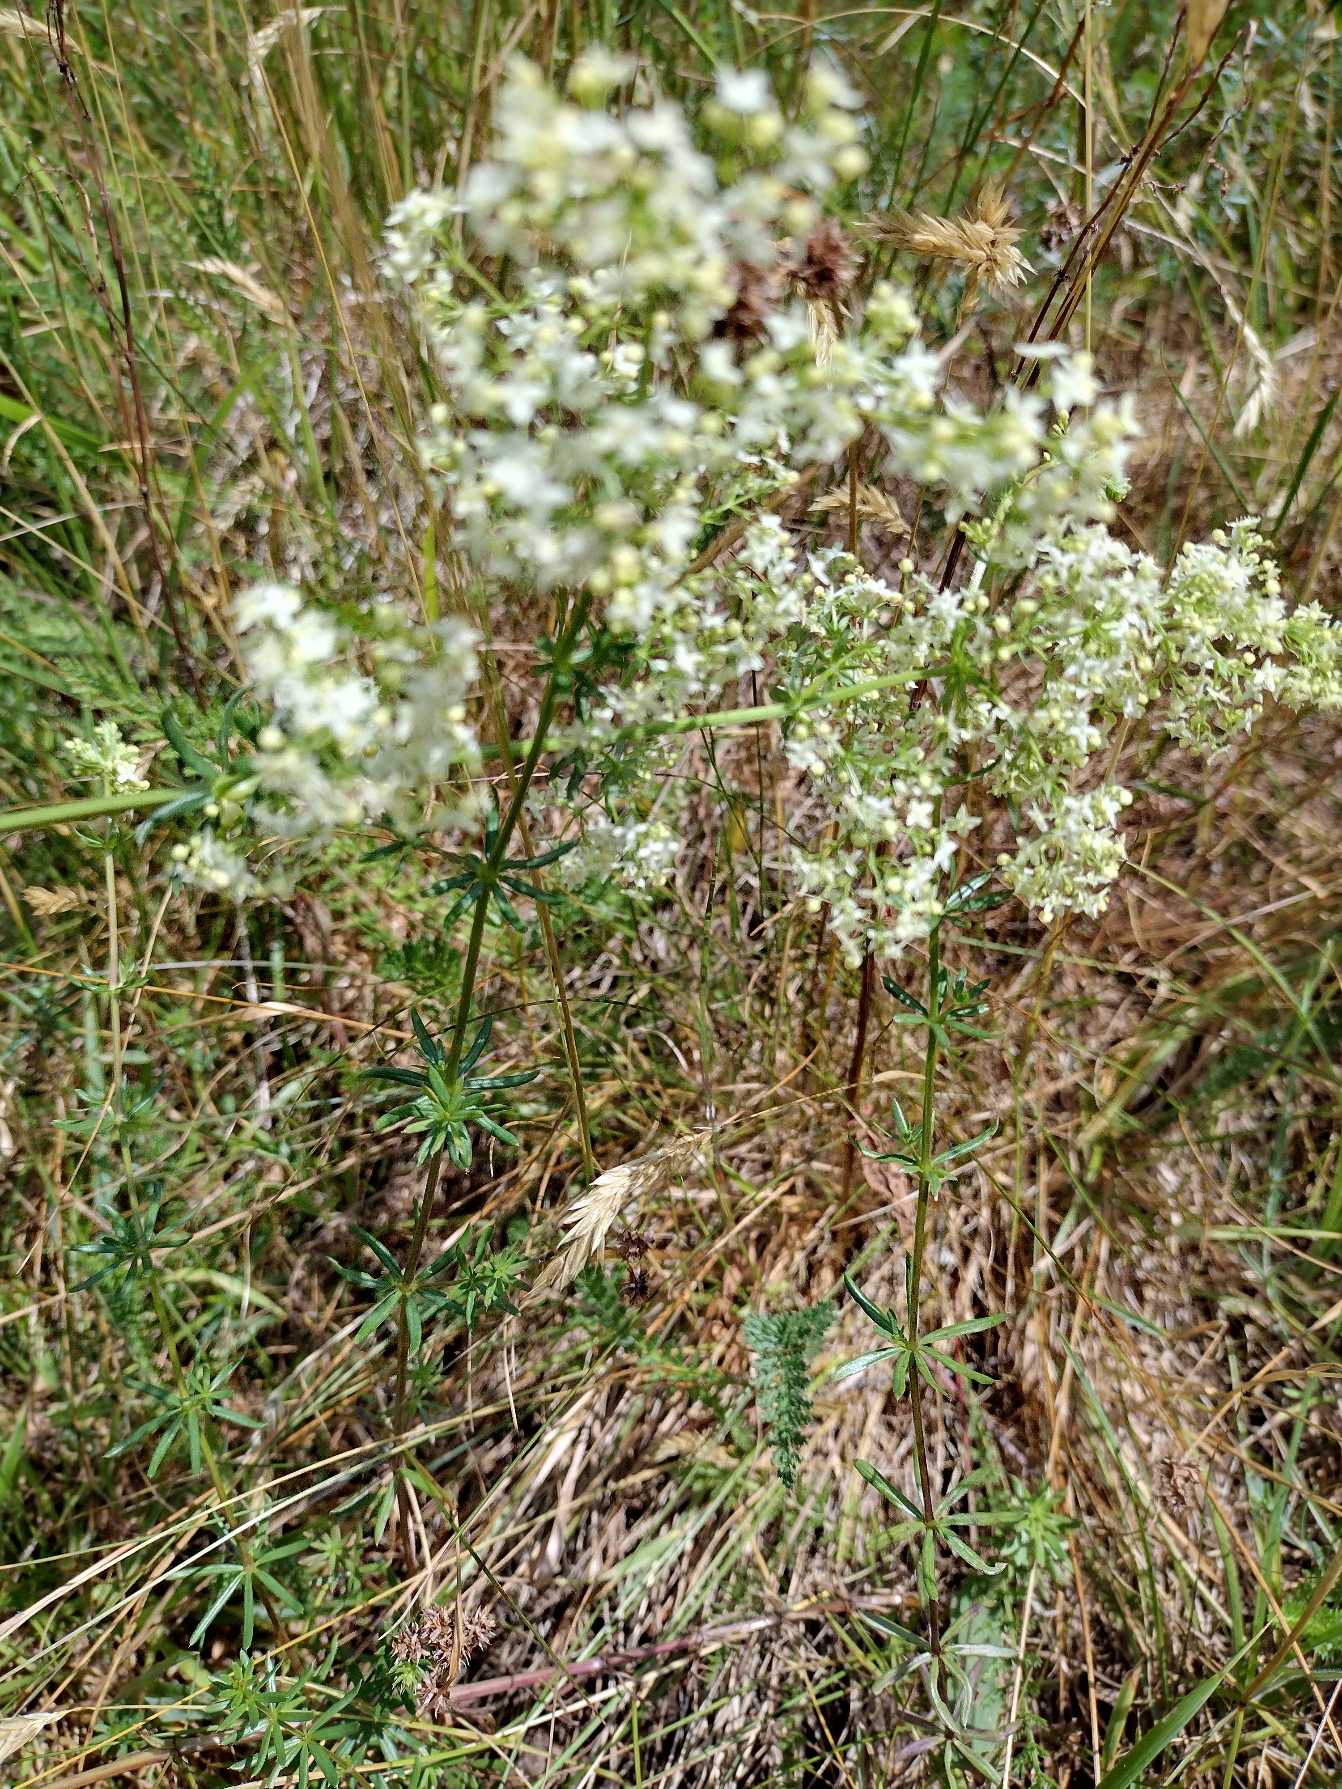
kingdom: Plantae
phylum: Tracheophyta
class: Magnoliopsida
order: Gentianales
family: Rubiaceae
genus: Galium
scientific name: Galium mollugo
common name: Hvid snerre
